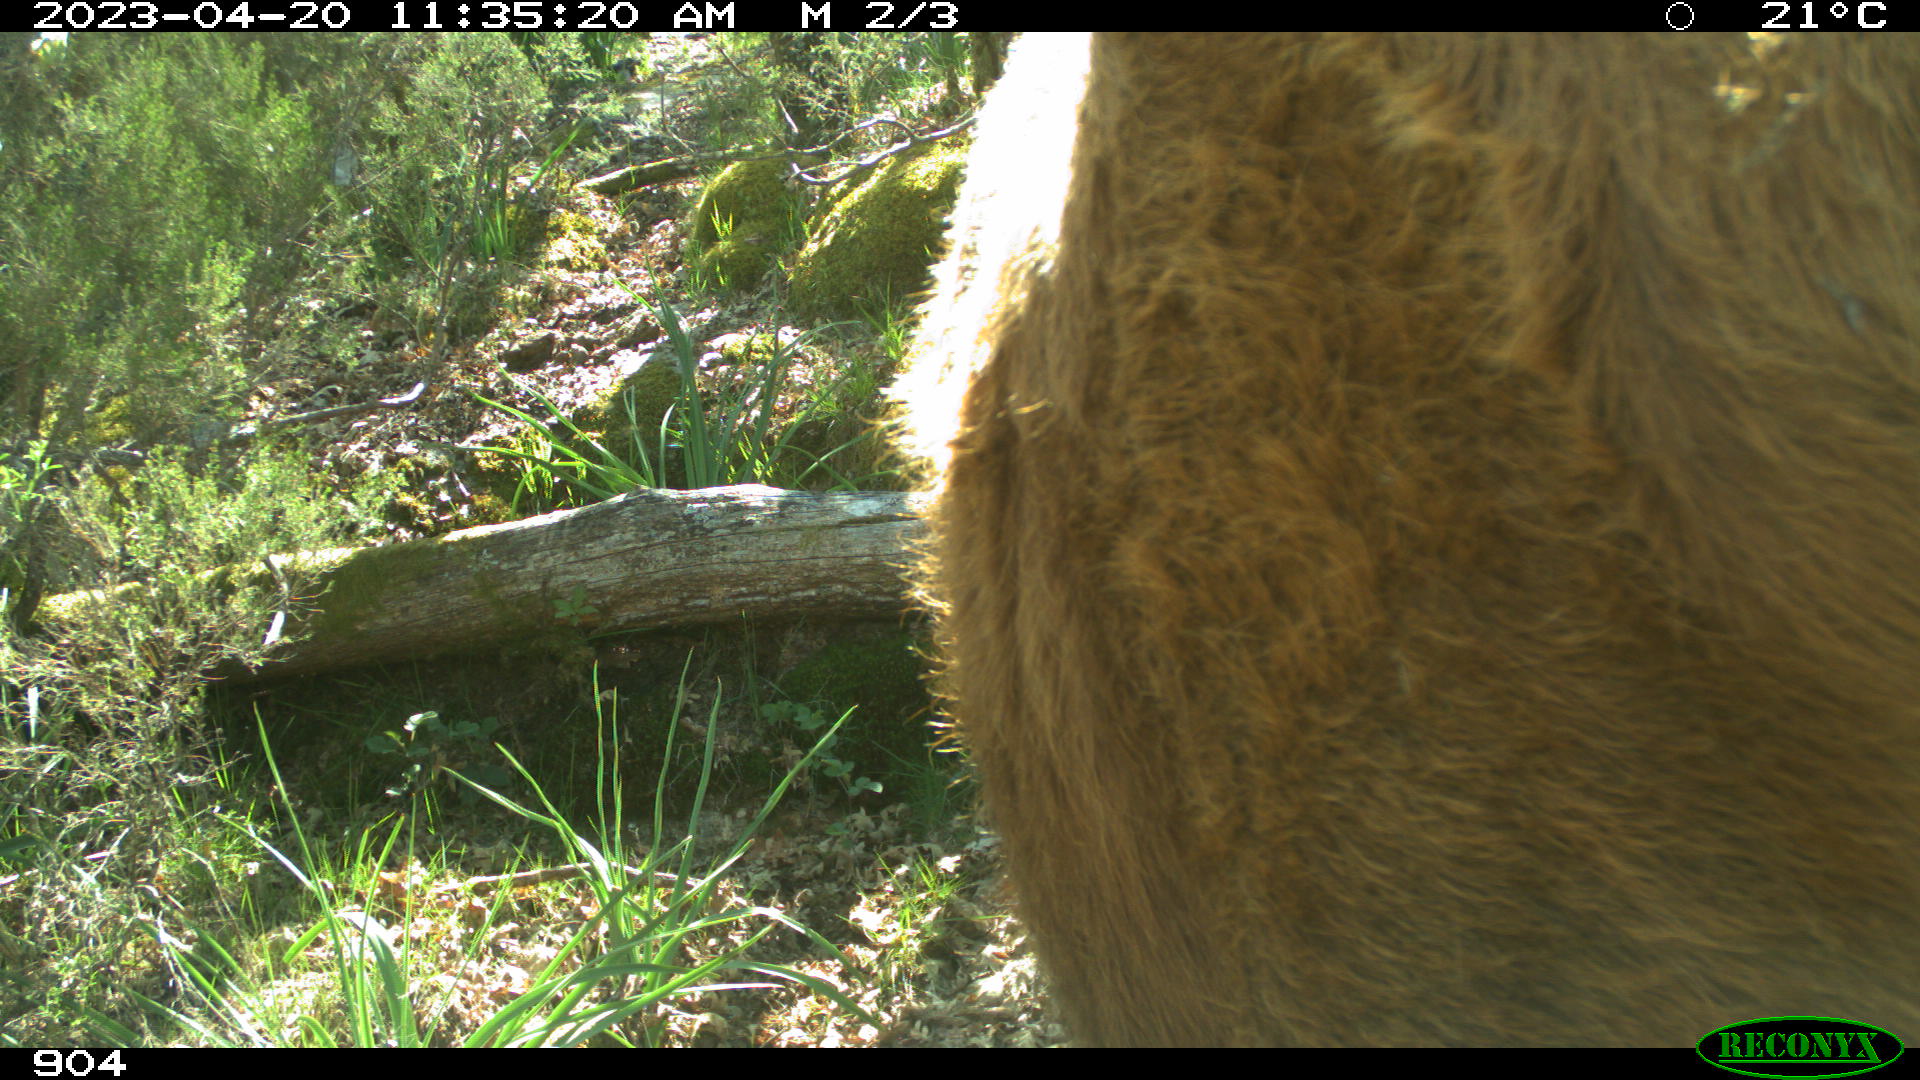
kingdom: Animalia
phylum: Chordata
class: Mammalia
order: Artiodactyla
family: Bovidae
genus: Bos
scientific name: Bos taurus
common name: Domesticated cattle
